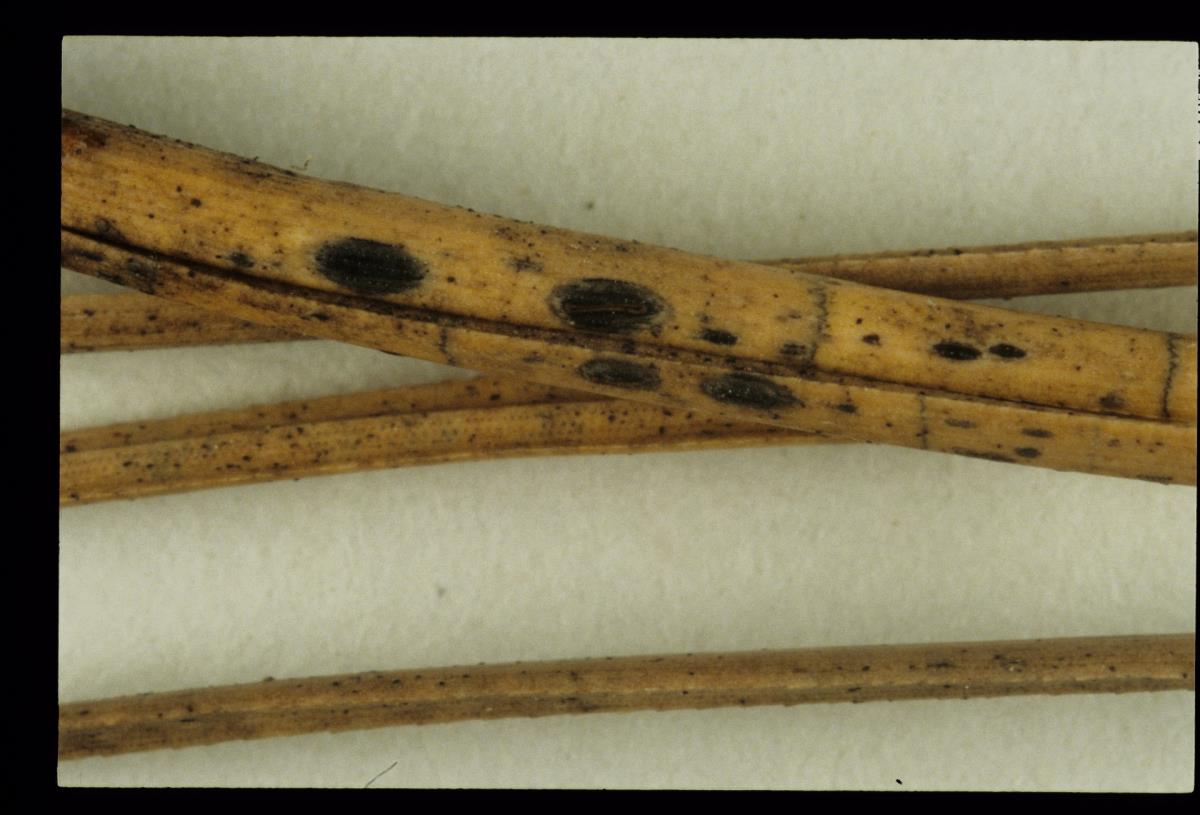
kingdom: Fungi
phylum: Ascomycota
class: Leotiomycetes
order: Rhytismatales
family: Rhytismataceae
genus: Lophodermium
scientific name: Lophodermium pinastri
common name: Pine needle split
